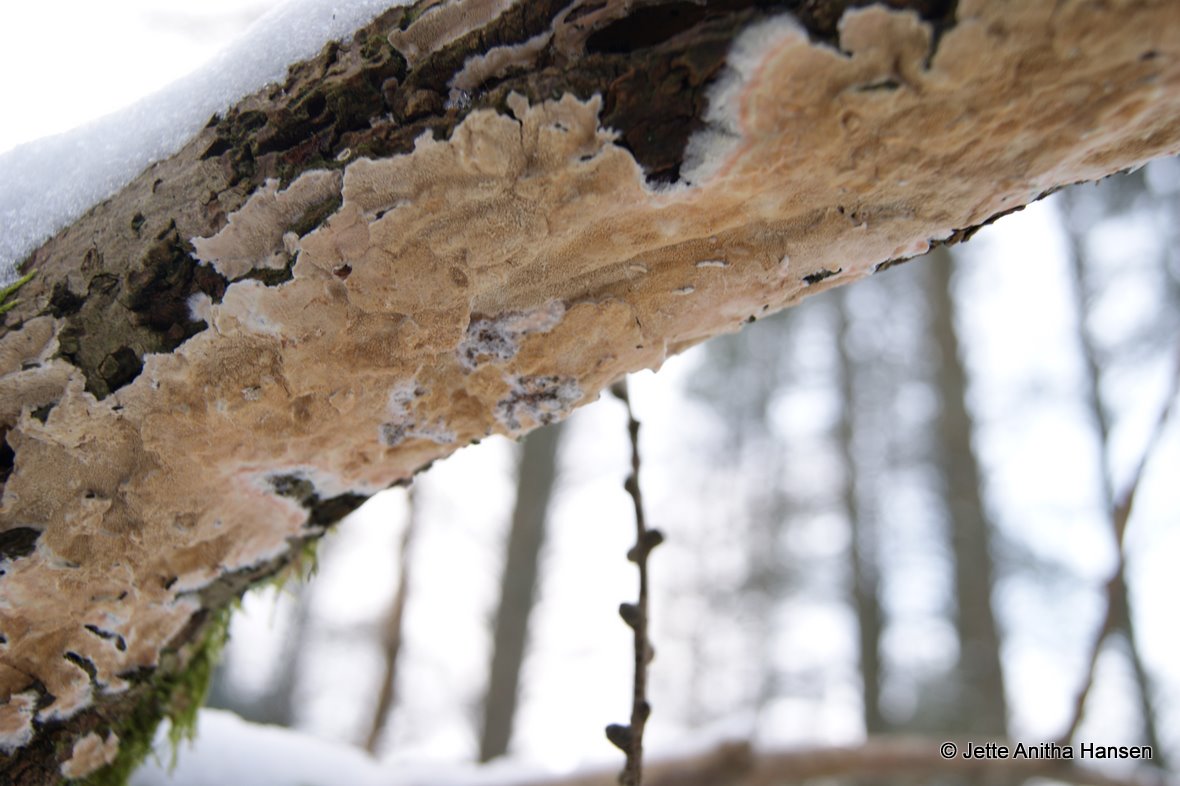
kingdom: Fungi
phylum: Basidiomycota
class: Agaricomycetes
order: Polyporales
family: Irpicaceae
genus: Crystallicutis
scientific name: Crystallicutis serpens
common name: gråviolet barkhinde
